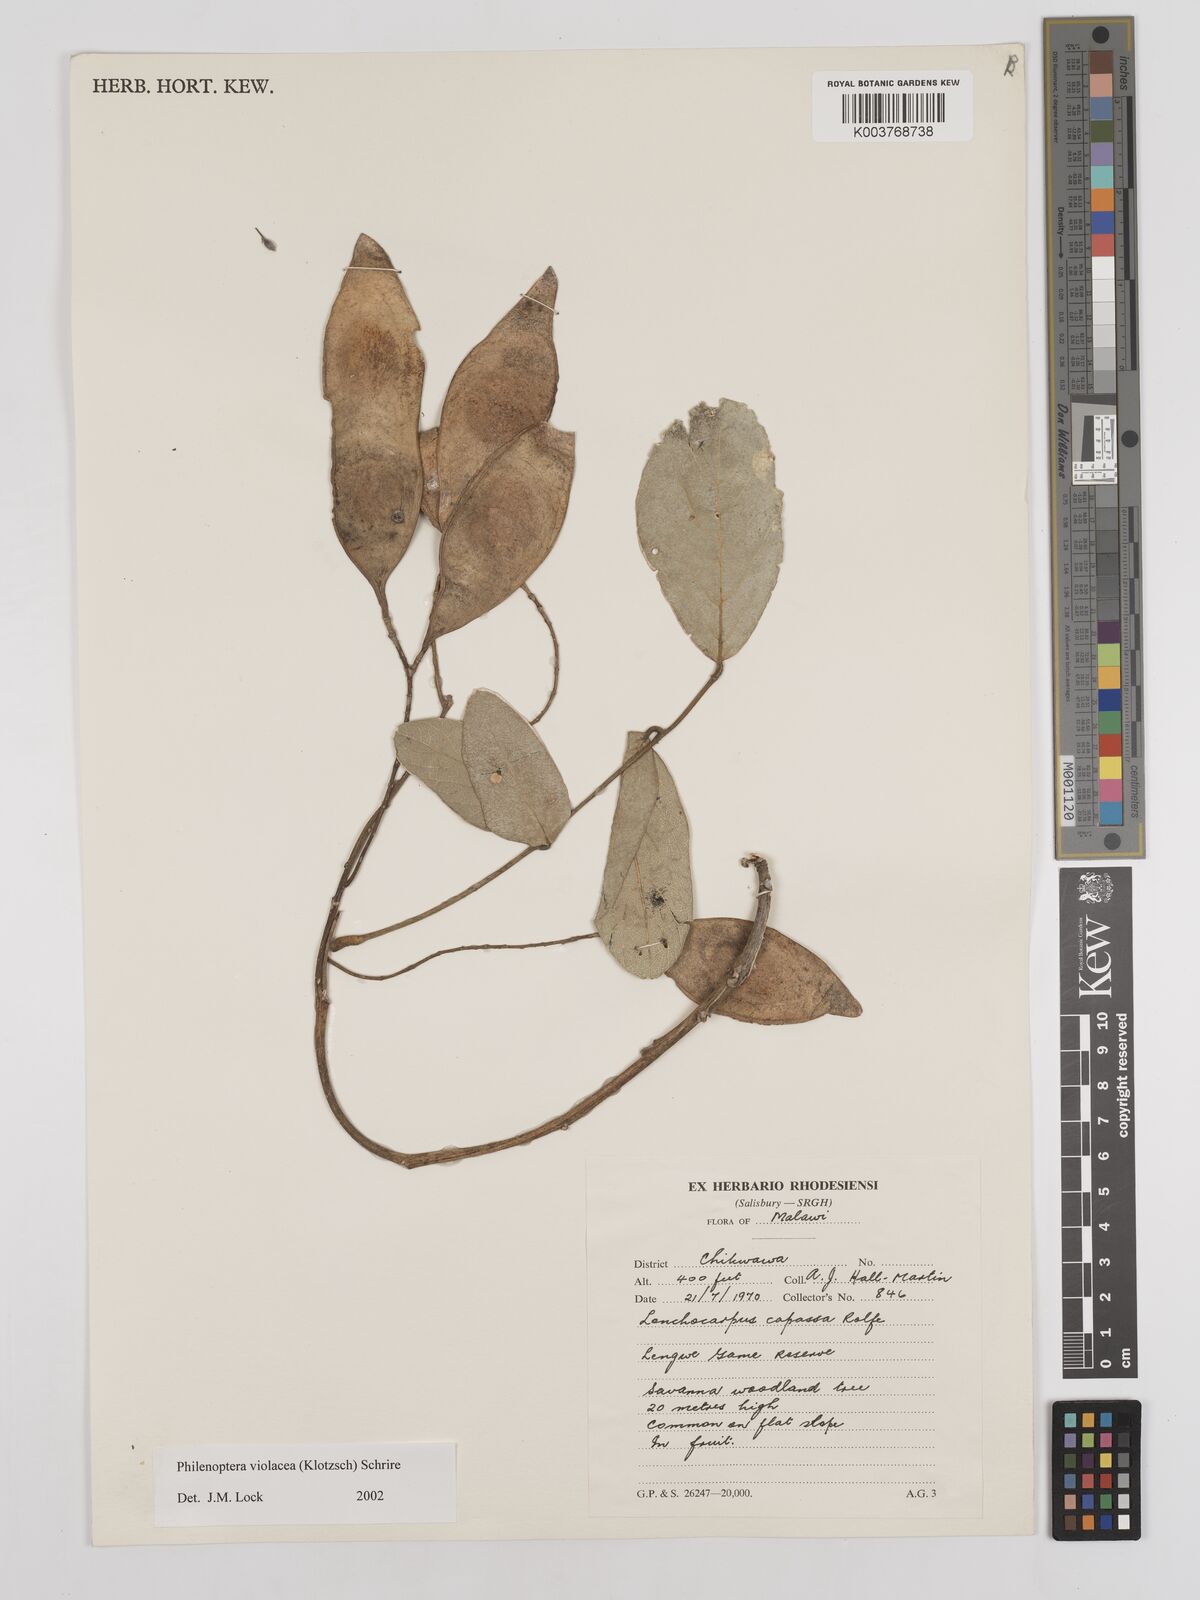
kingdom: Plantae
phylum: Tracheophyta
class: Magnoliopsida
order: Fabales
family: Fabaceae
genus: Philenoptera
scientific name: Philenoptera violacea
